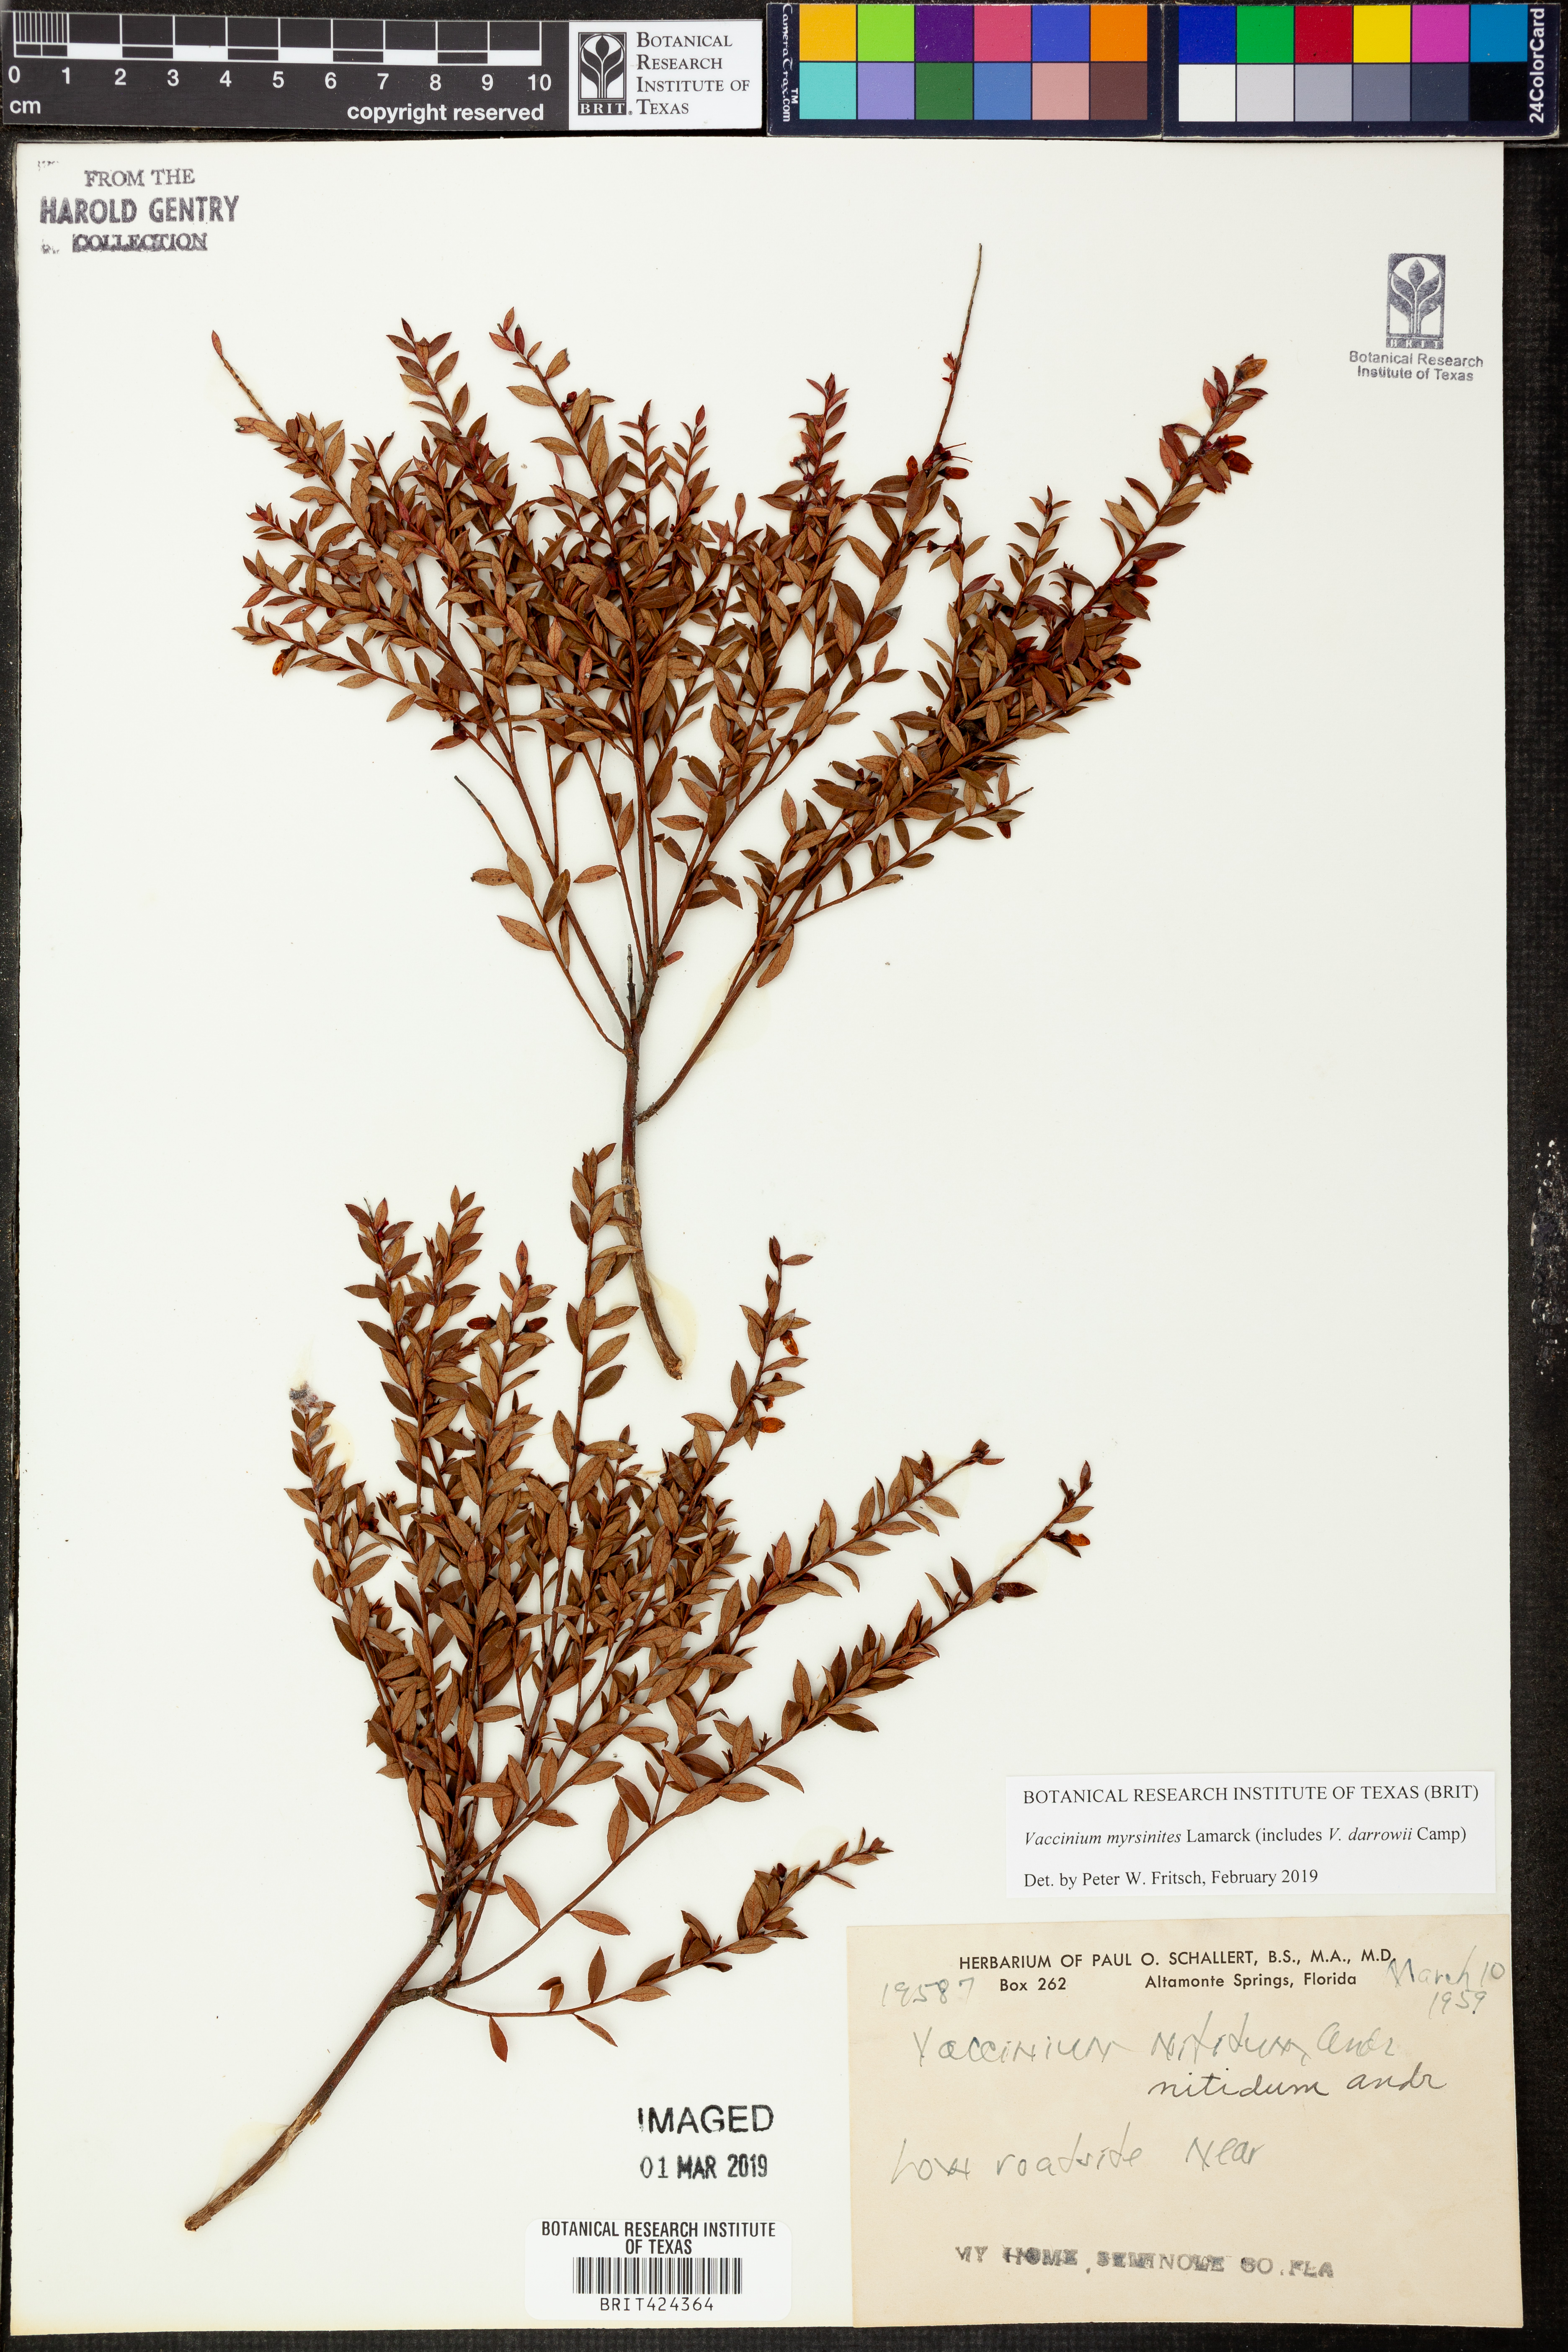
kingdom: Plantae
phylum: Tracheophyta
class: Magnoliopsida
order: Ericales
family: Ericaceae
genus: Vaccinium
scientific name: Vaccinium myrsinites
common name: Evergreen blueberry
